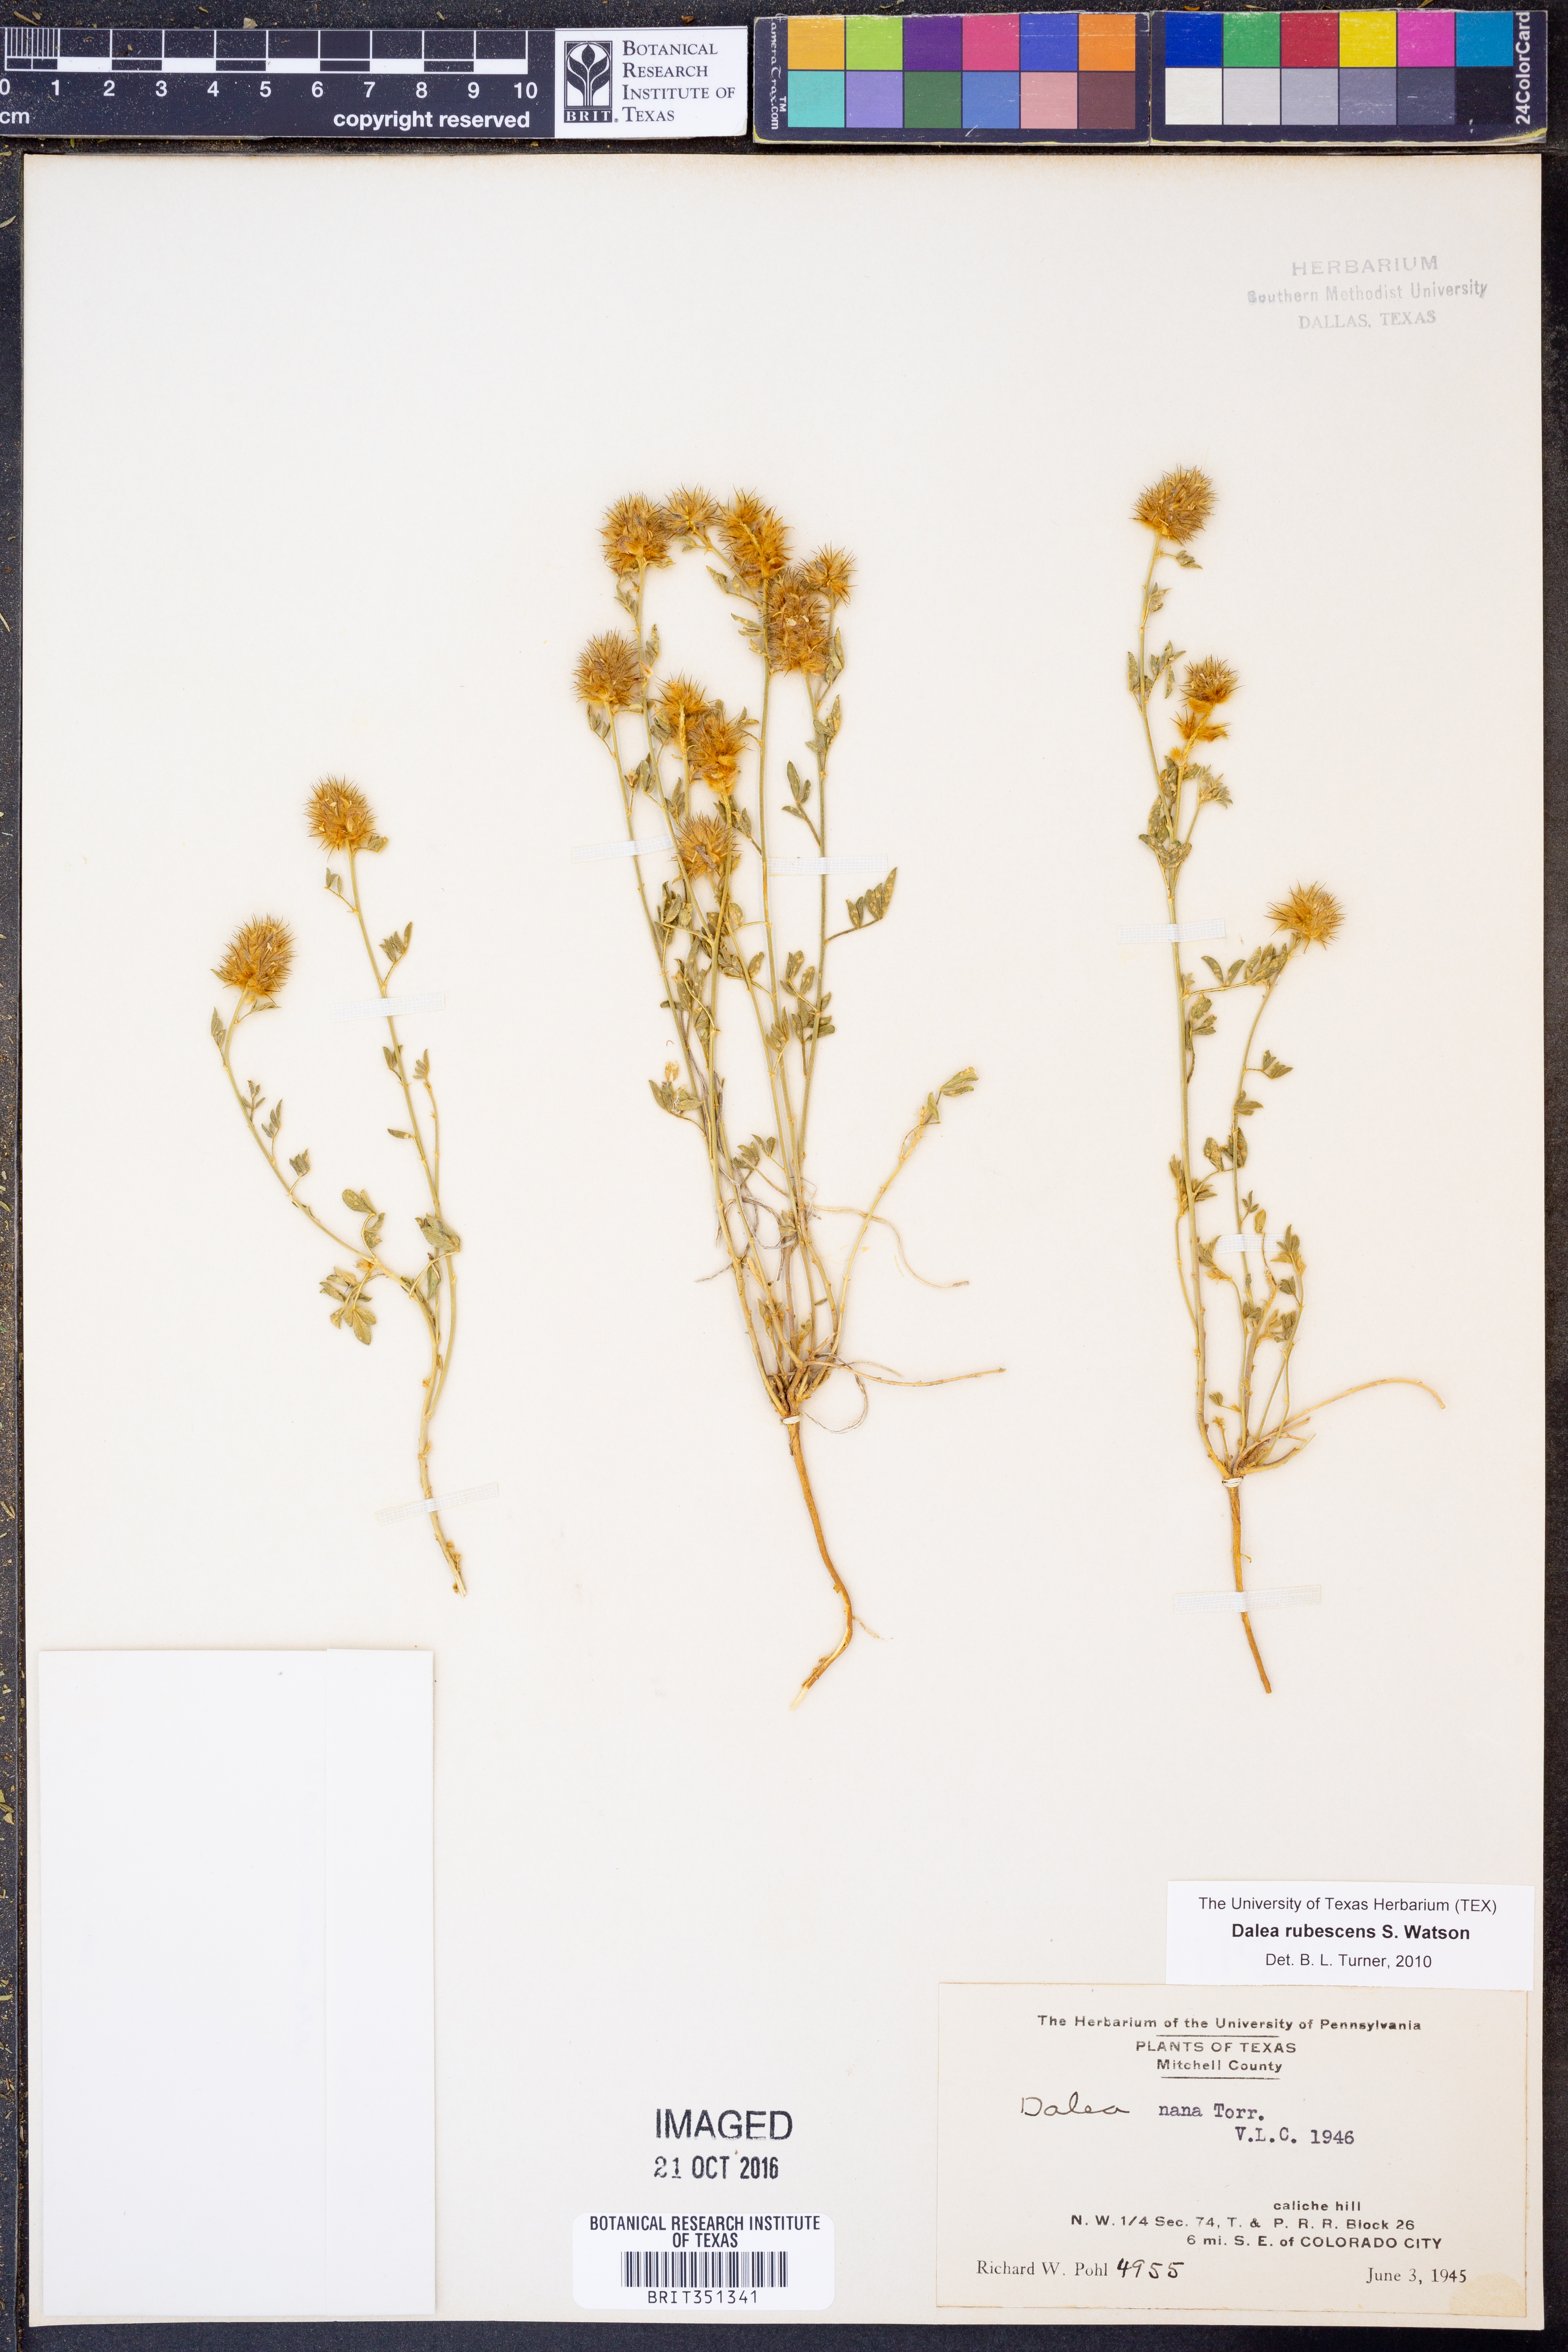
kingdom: Plantae
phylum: Tracheophyta
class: Magnoliopsida
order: Fabales
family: Fabaceae
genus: Dalea
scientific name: Dalea rubescens
